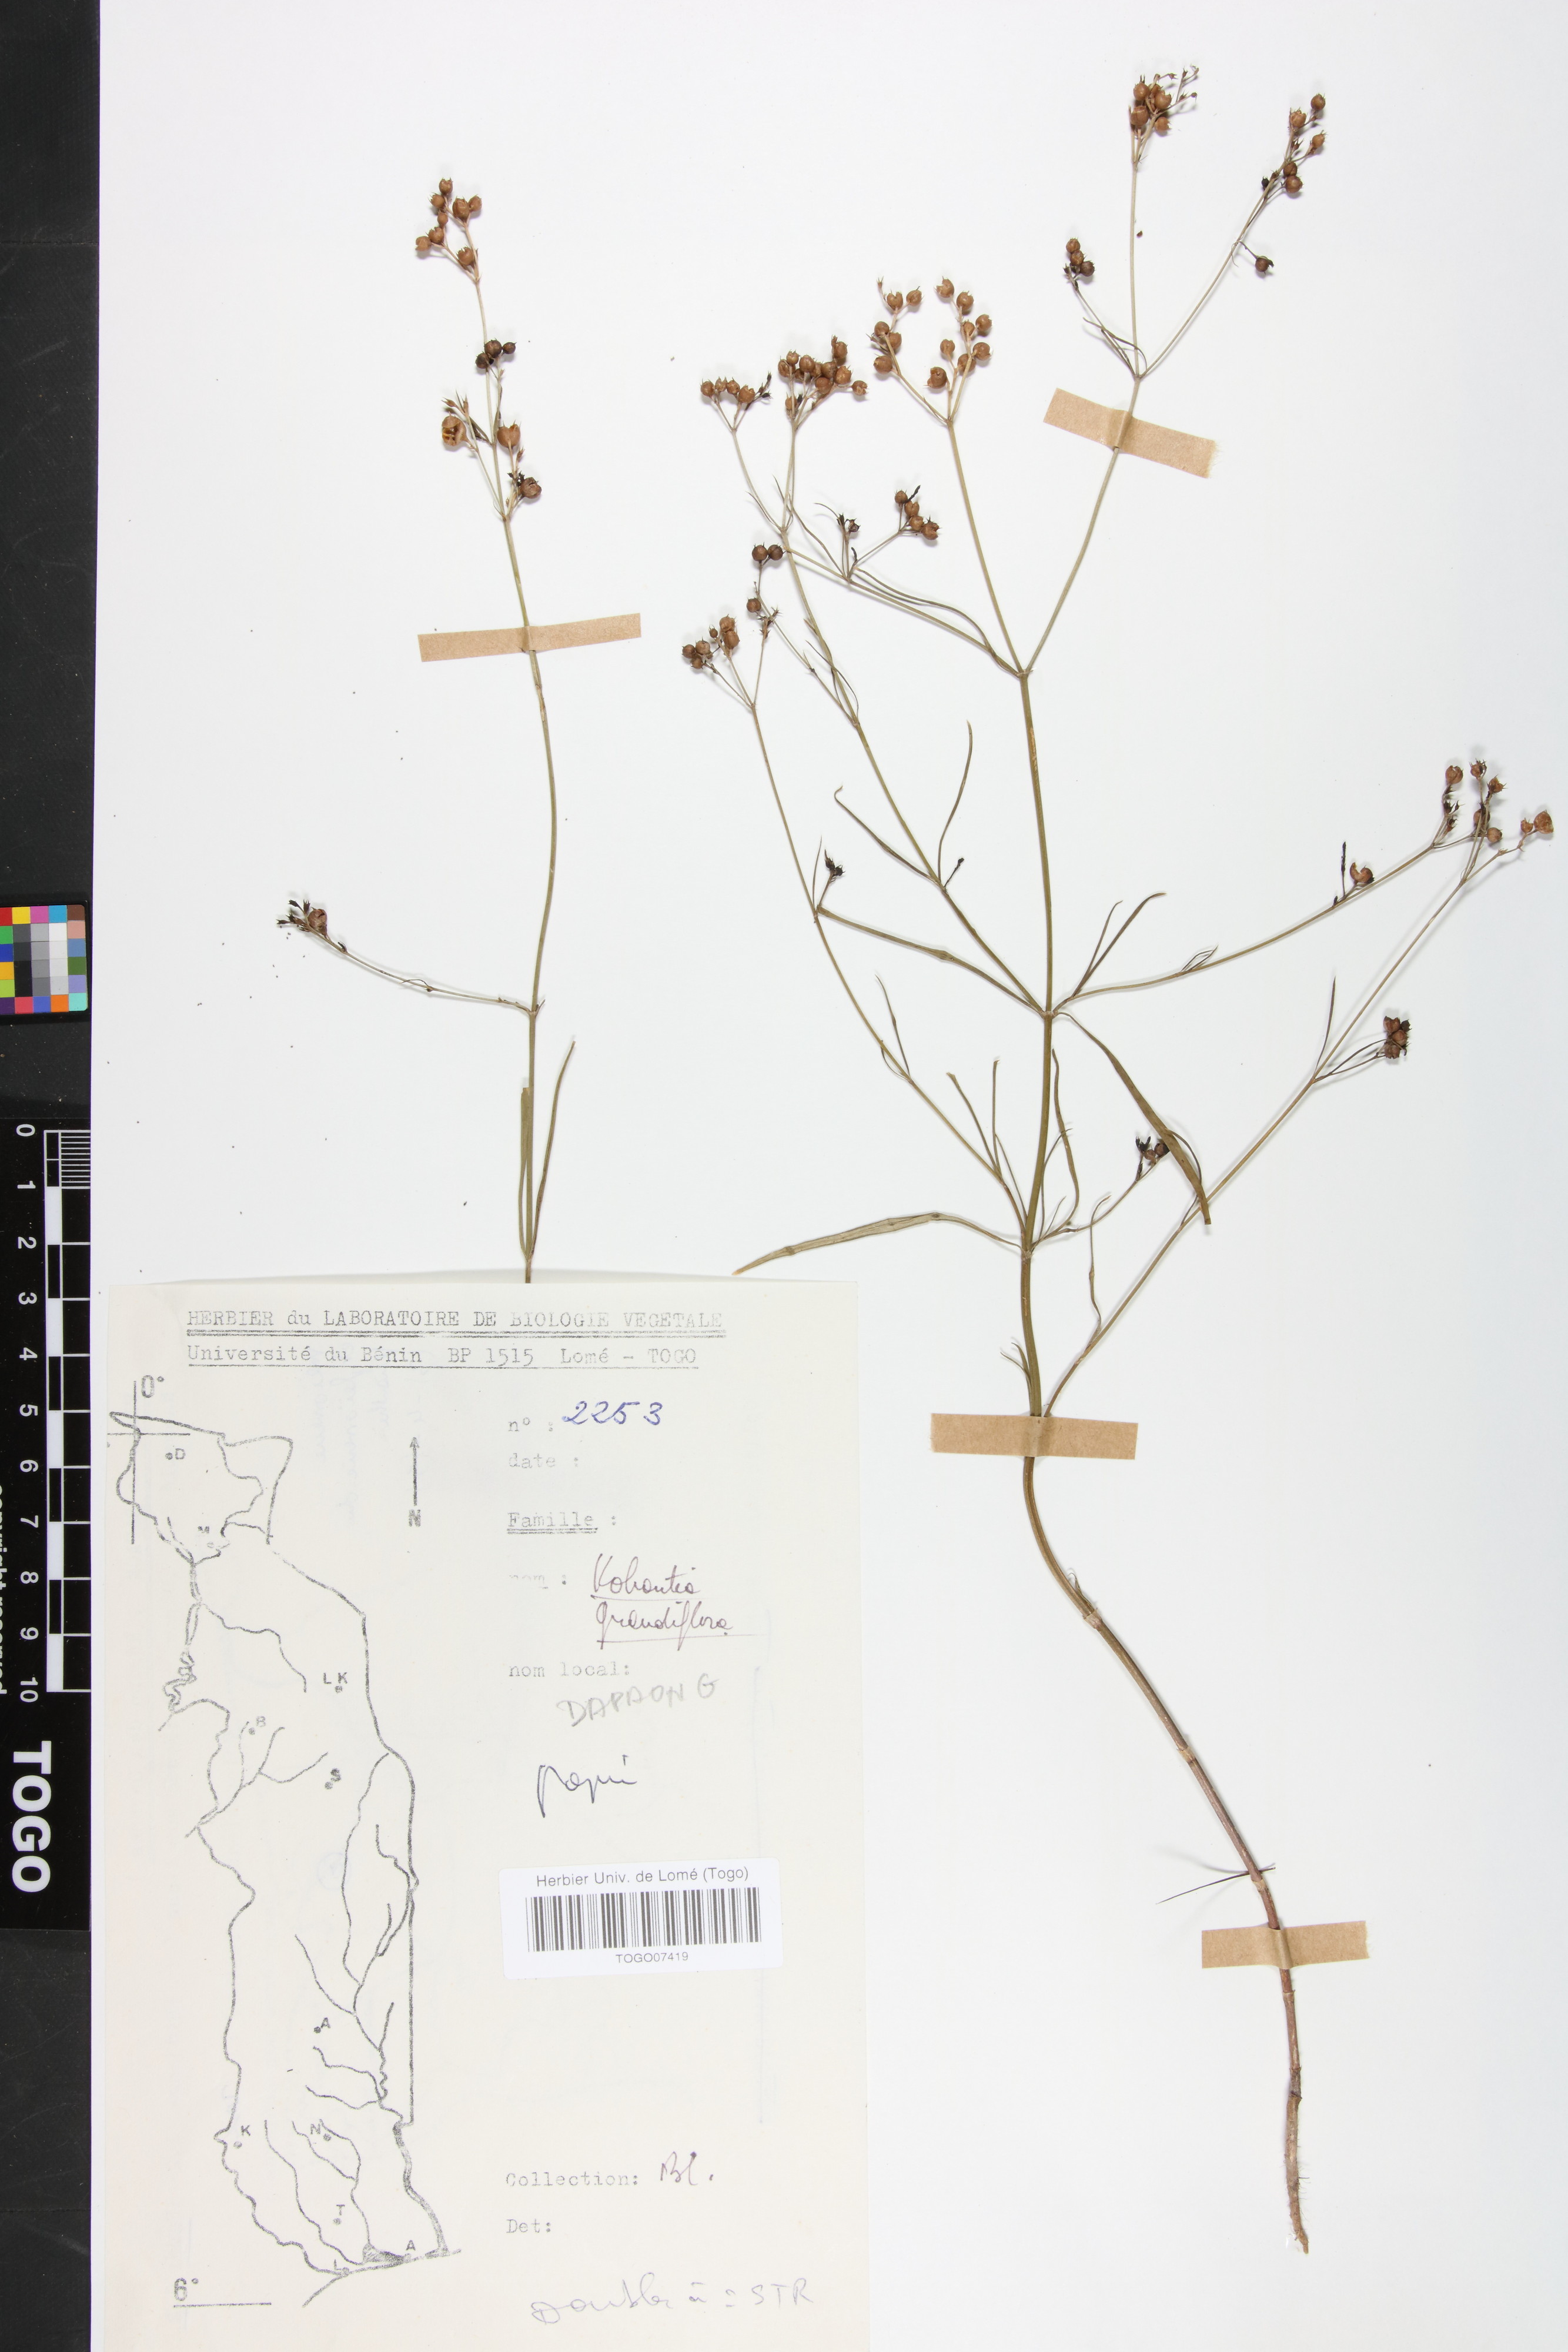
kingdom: Plantae
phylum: Tracheophyta
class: Magnoliopsida
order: Gentianales
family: Rubiaceae
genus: Kohautia
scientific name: Kohautia grandiflora
